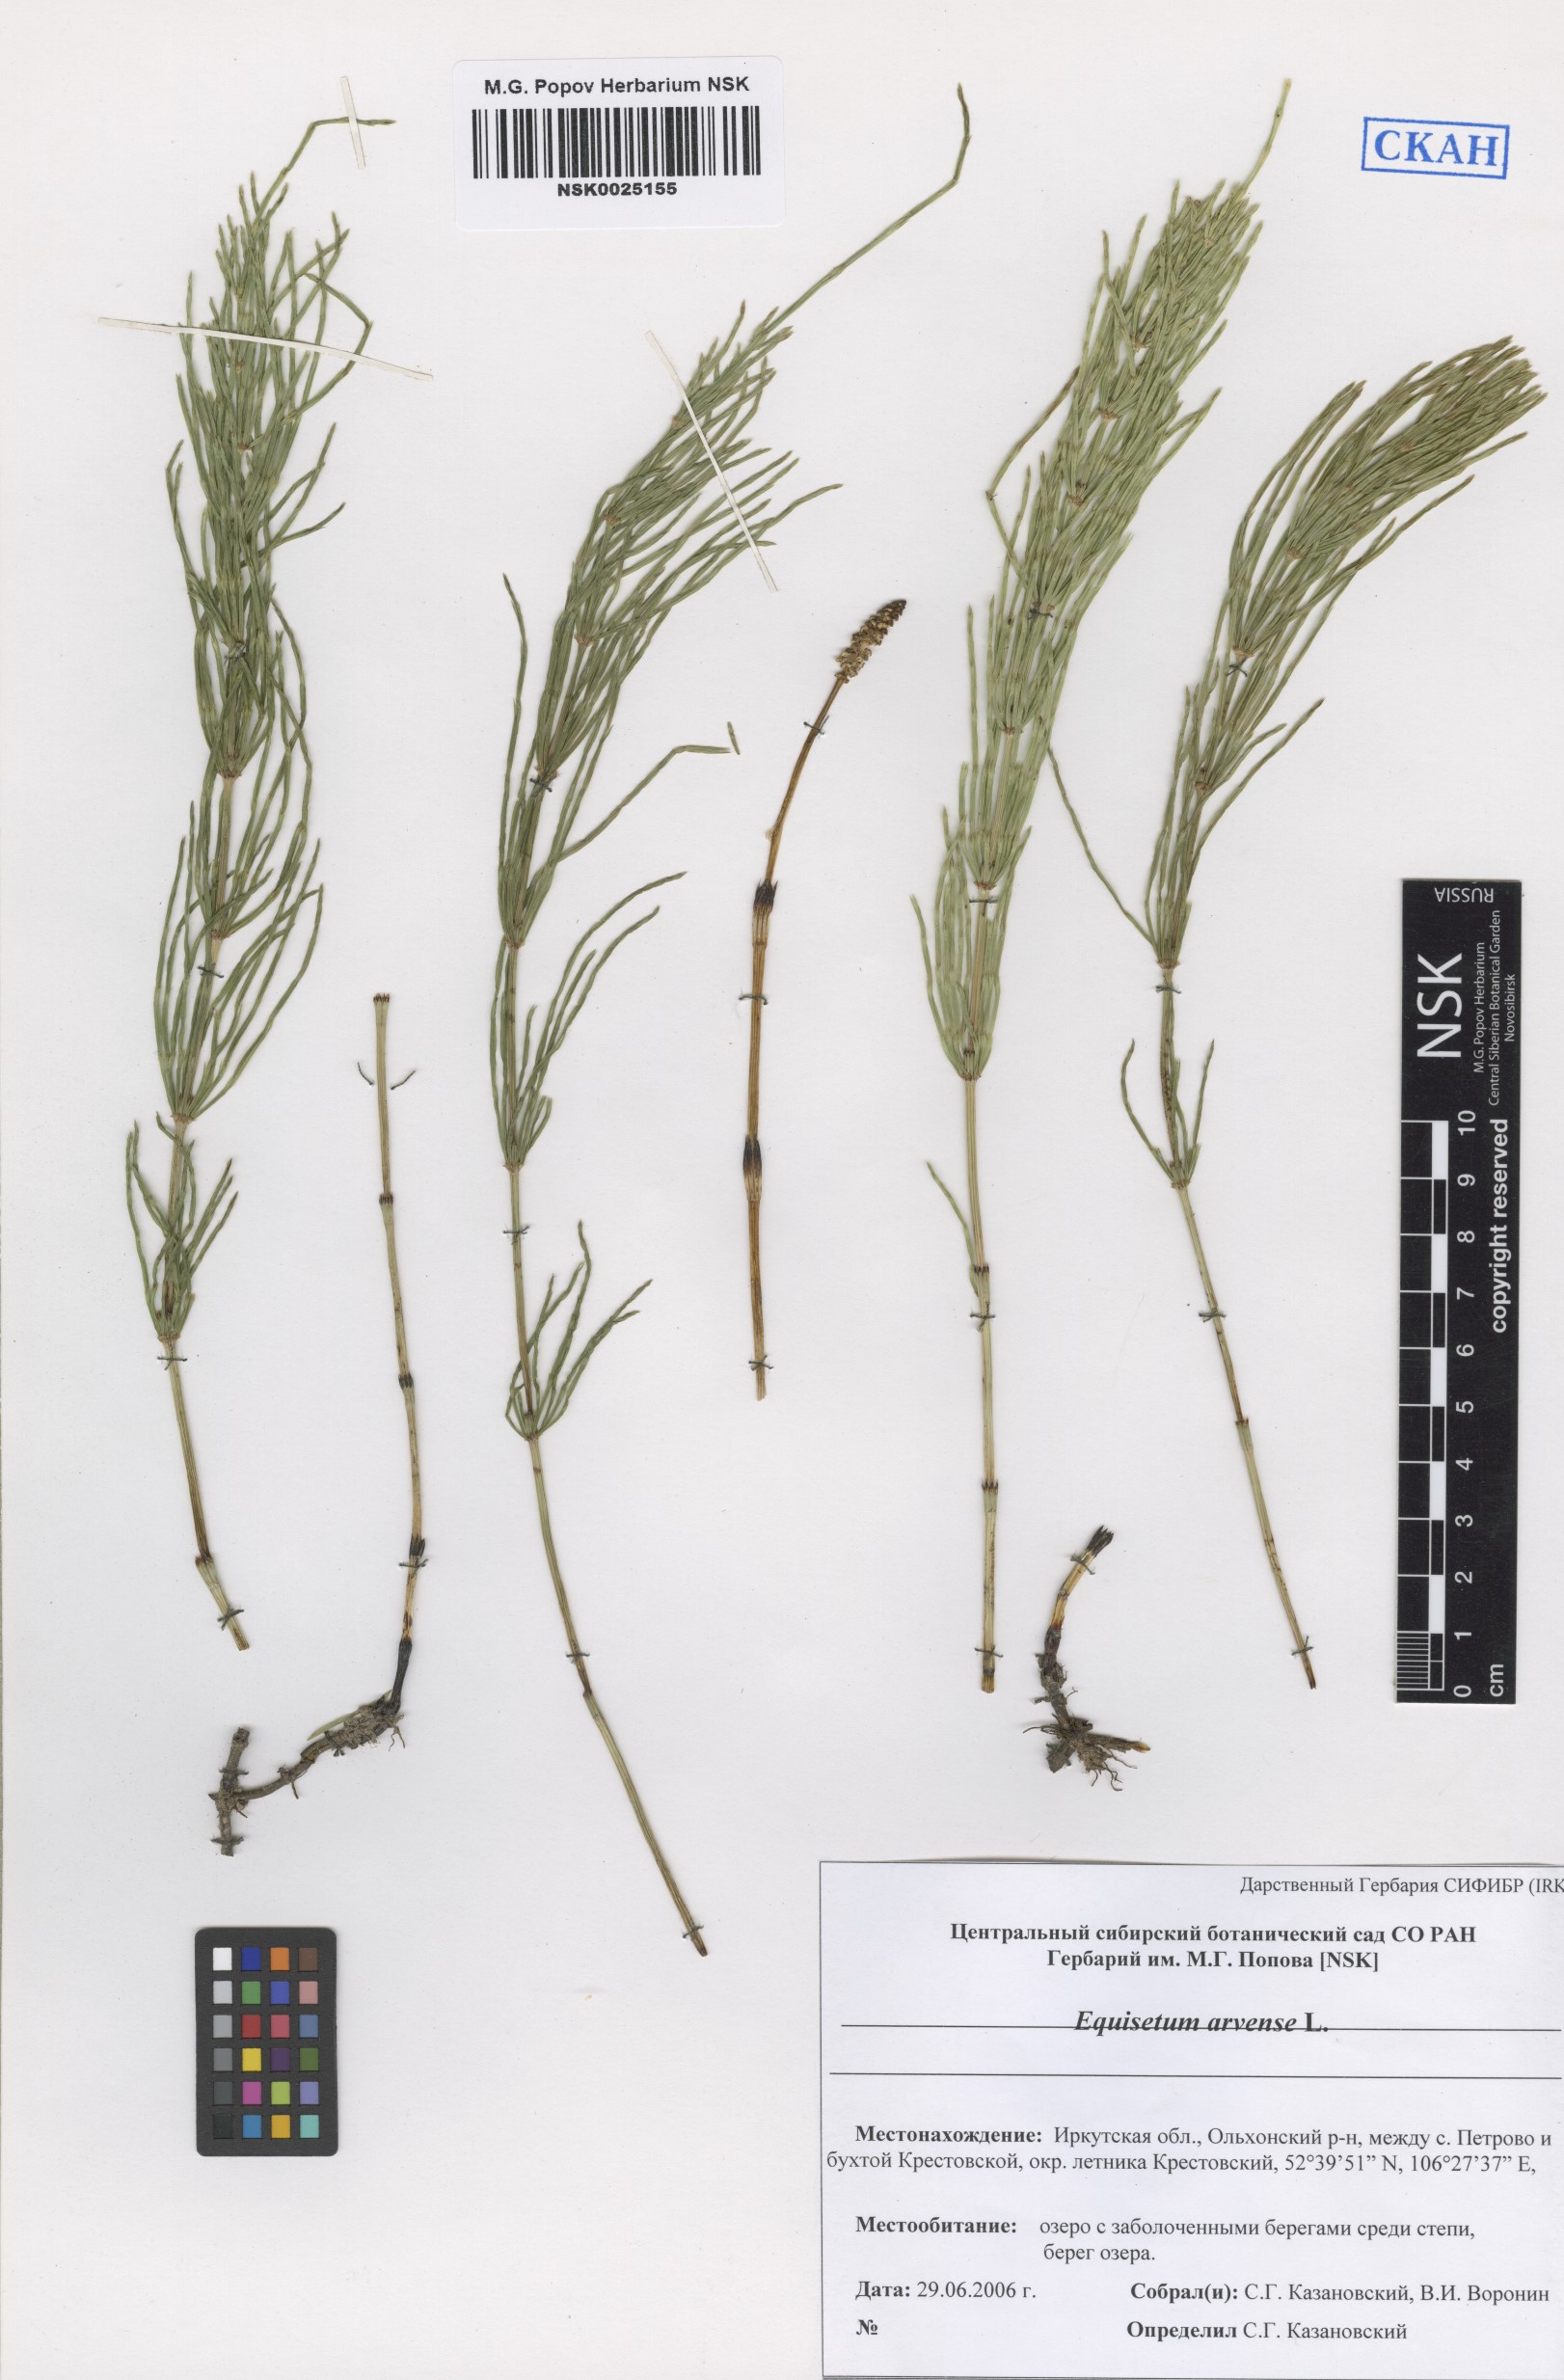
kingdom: Plantae
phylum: Tracheophyta
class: Polypodiopsida
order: Equisetales
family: Equisetaceae
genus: Equisetum
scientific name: Equisetum arvense
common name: Field horsetail
